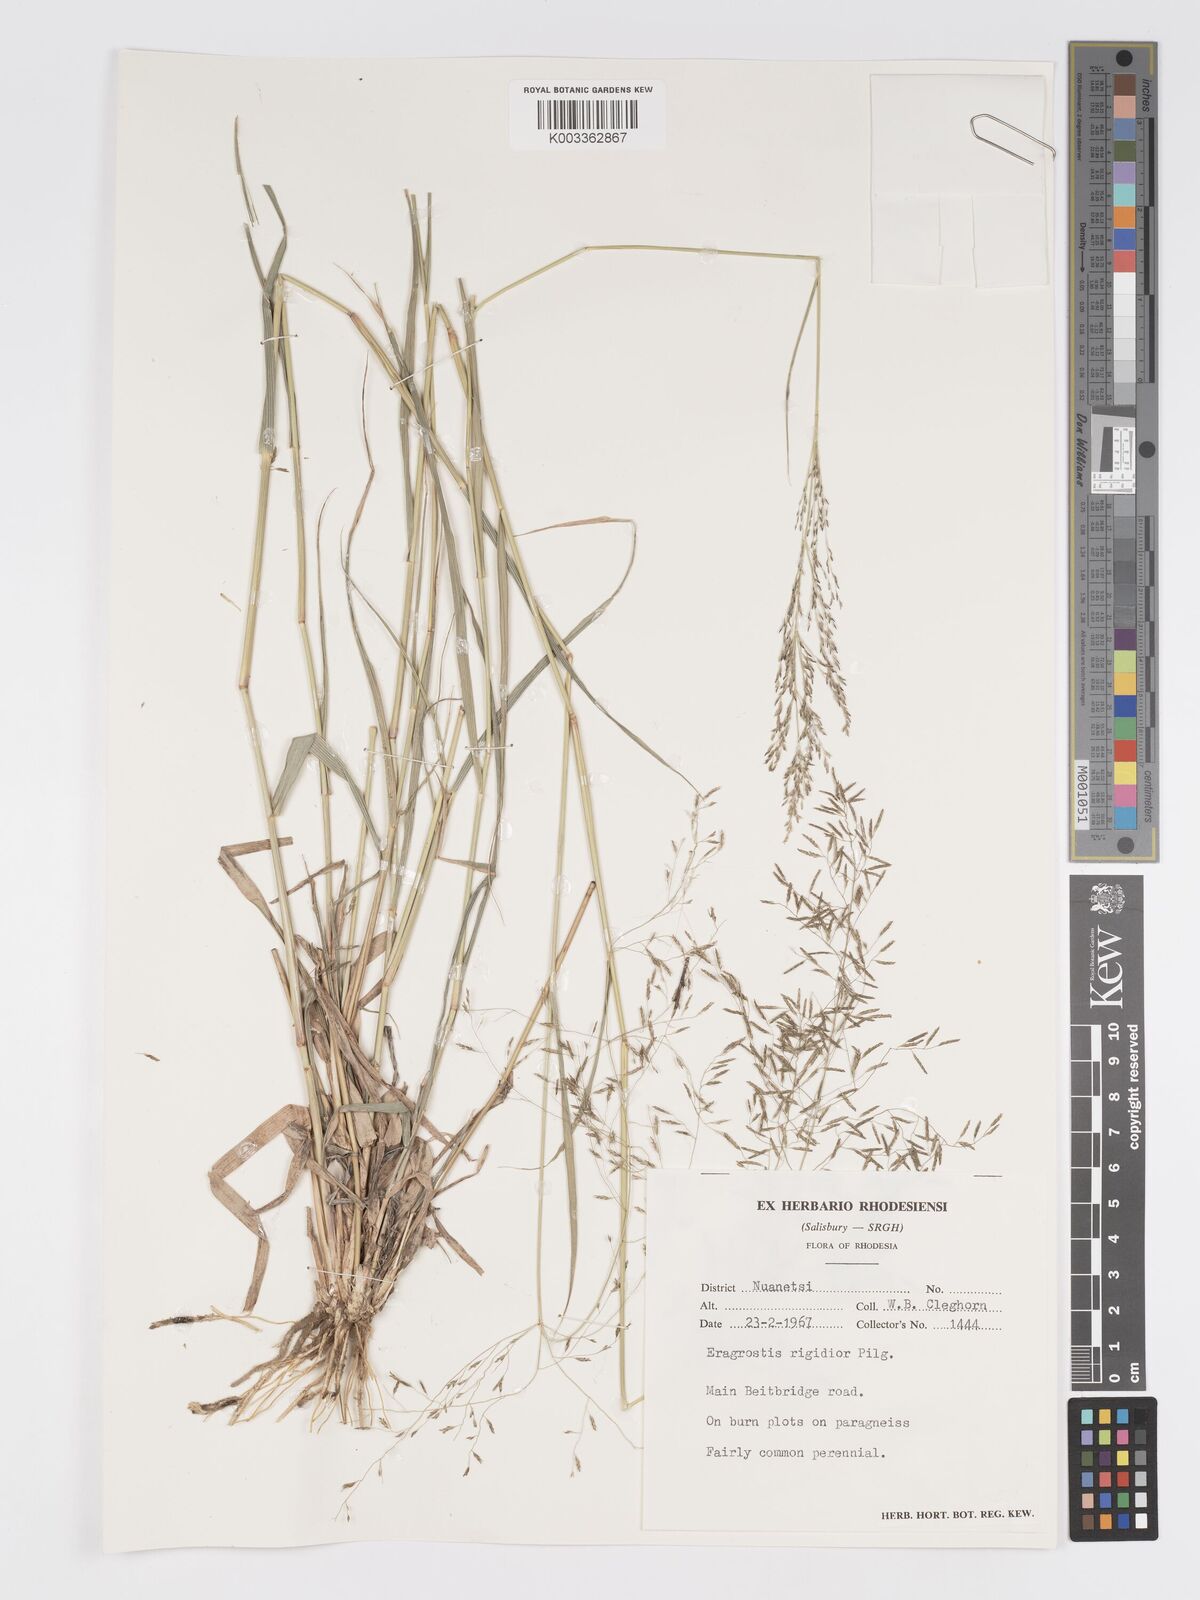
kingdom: Plantae
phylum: Tracheophyta
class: Liliopsida
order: Poales
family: Poaceae
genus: Eragrostis
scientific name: Eragrostis cylindriflora
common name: Cylinderflower lovegrass
